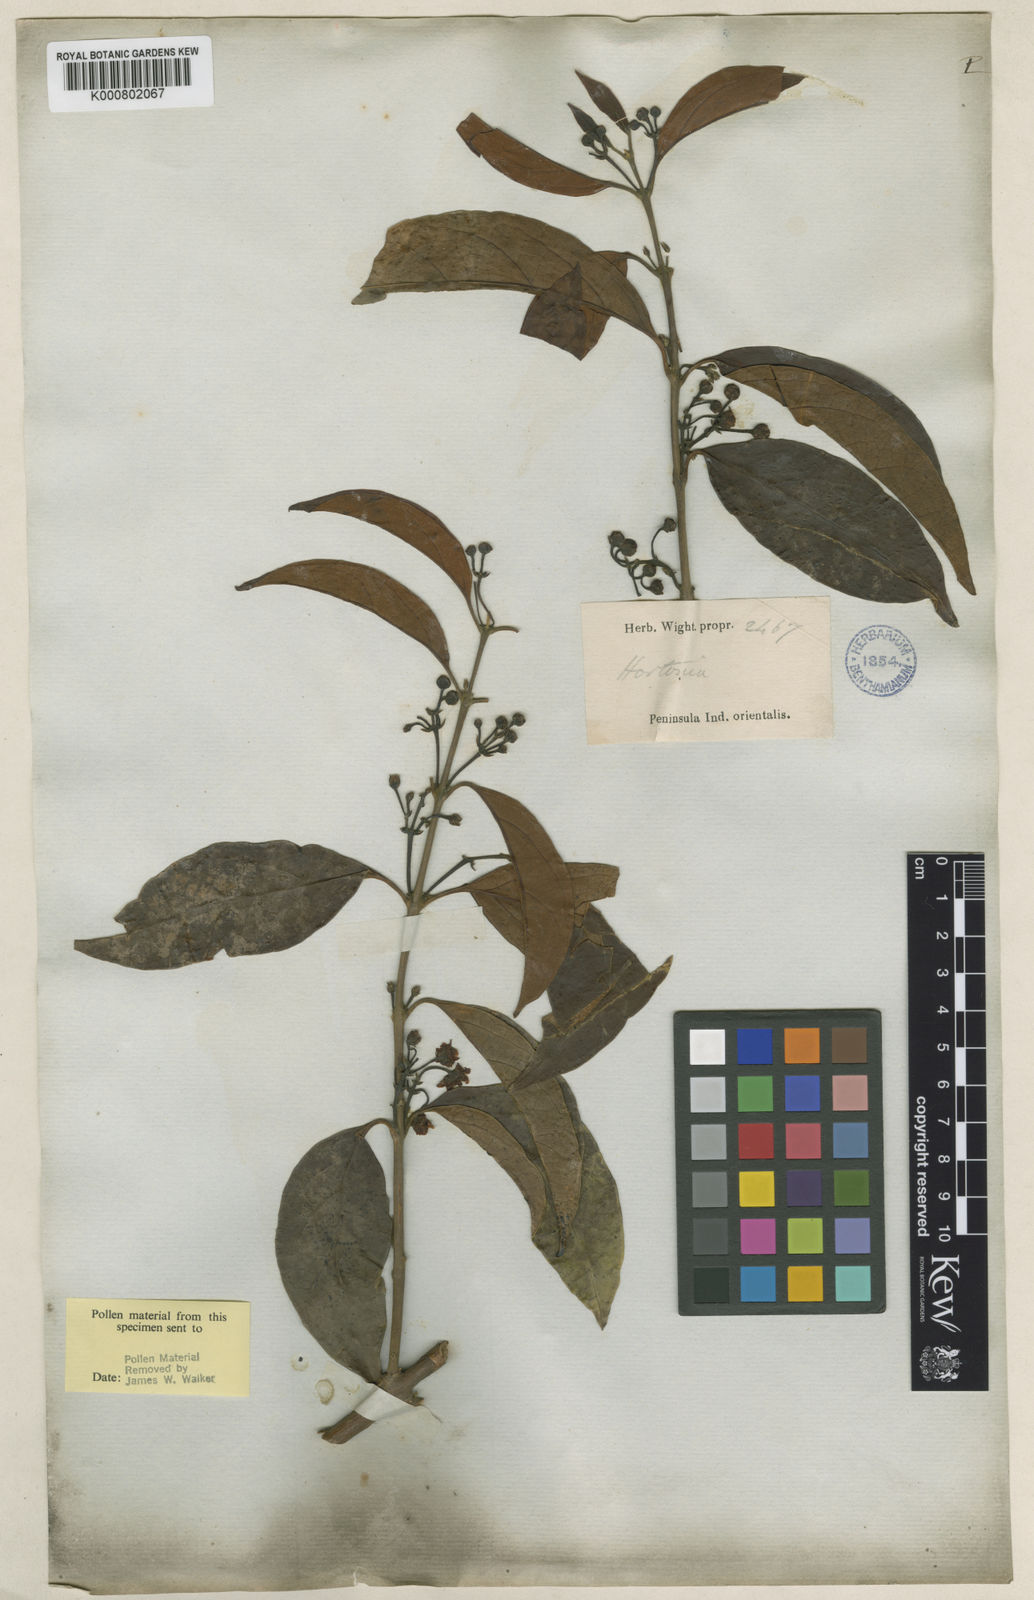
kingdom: Plantae
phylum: Tracheophyta
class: Magnoliopsida
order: Laurales
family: Monimiaceae
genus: Hortonia
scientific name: Hortonia floribunda
